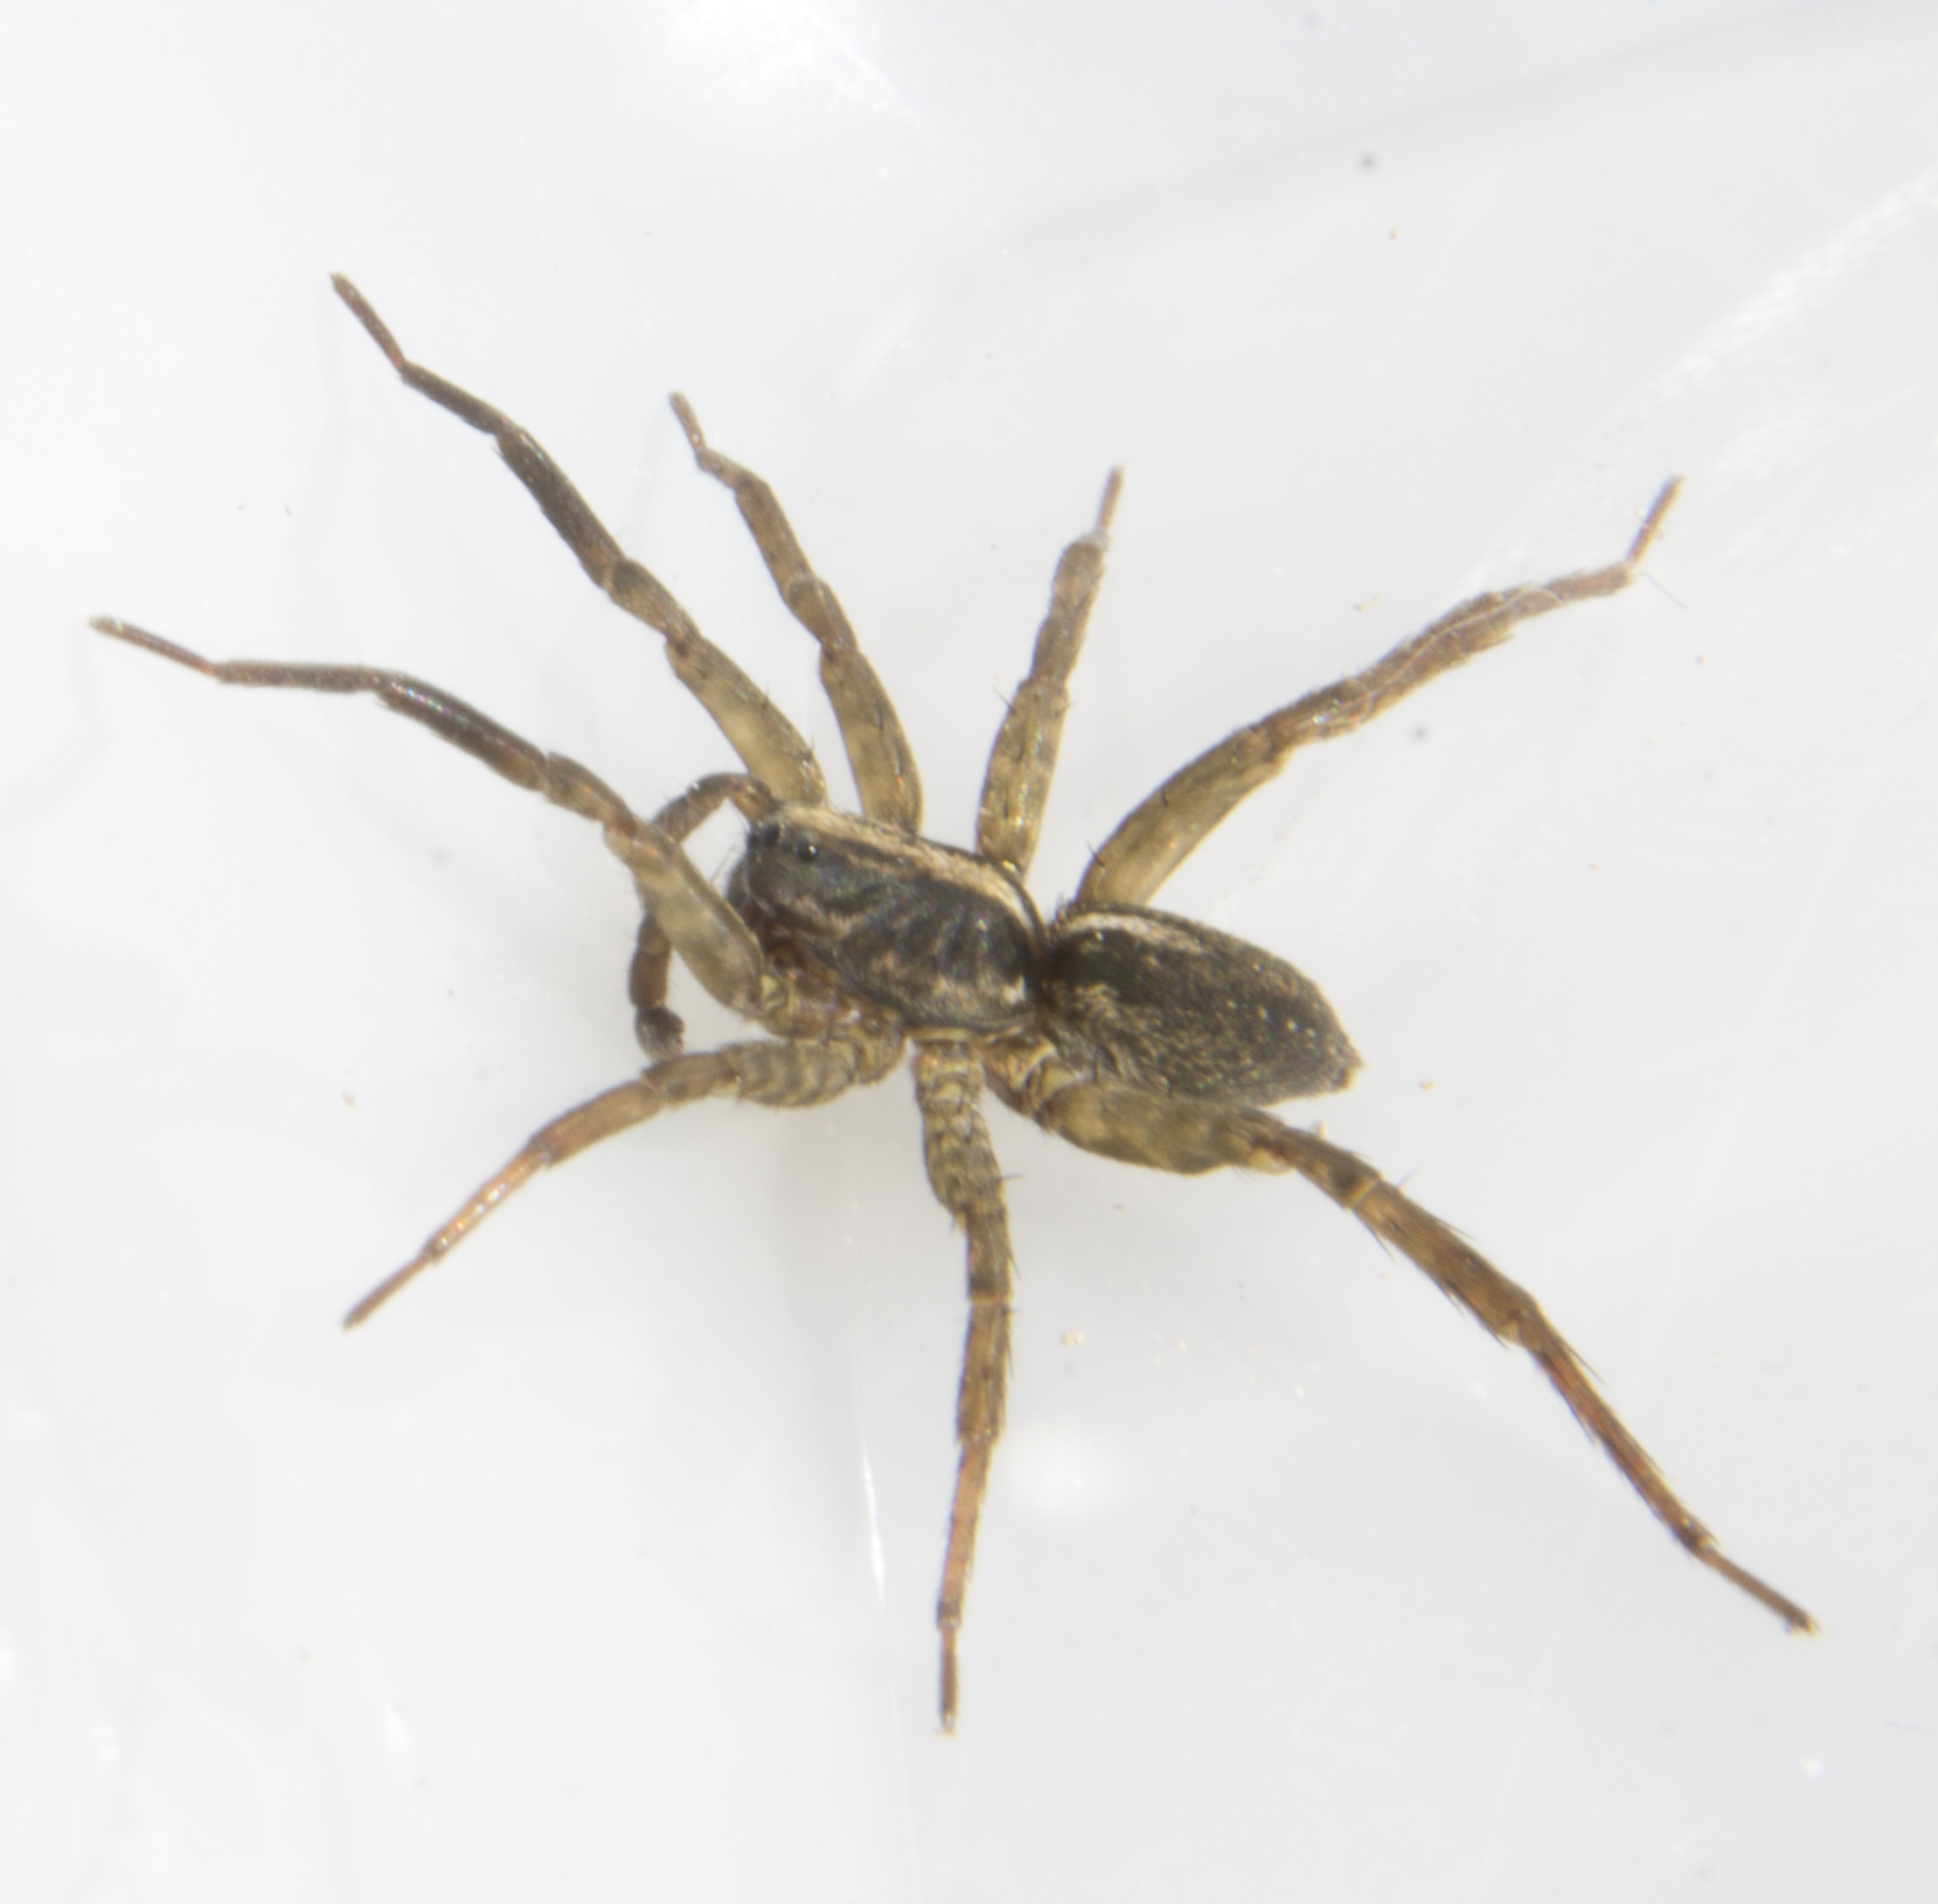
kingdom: Animalia
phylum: Arthropoda
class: Arachnida
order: Araneae
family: Lycosidae
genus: Trochosa
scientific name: Trochosa
